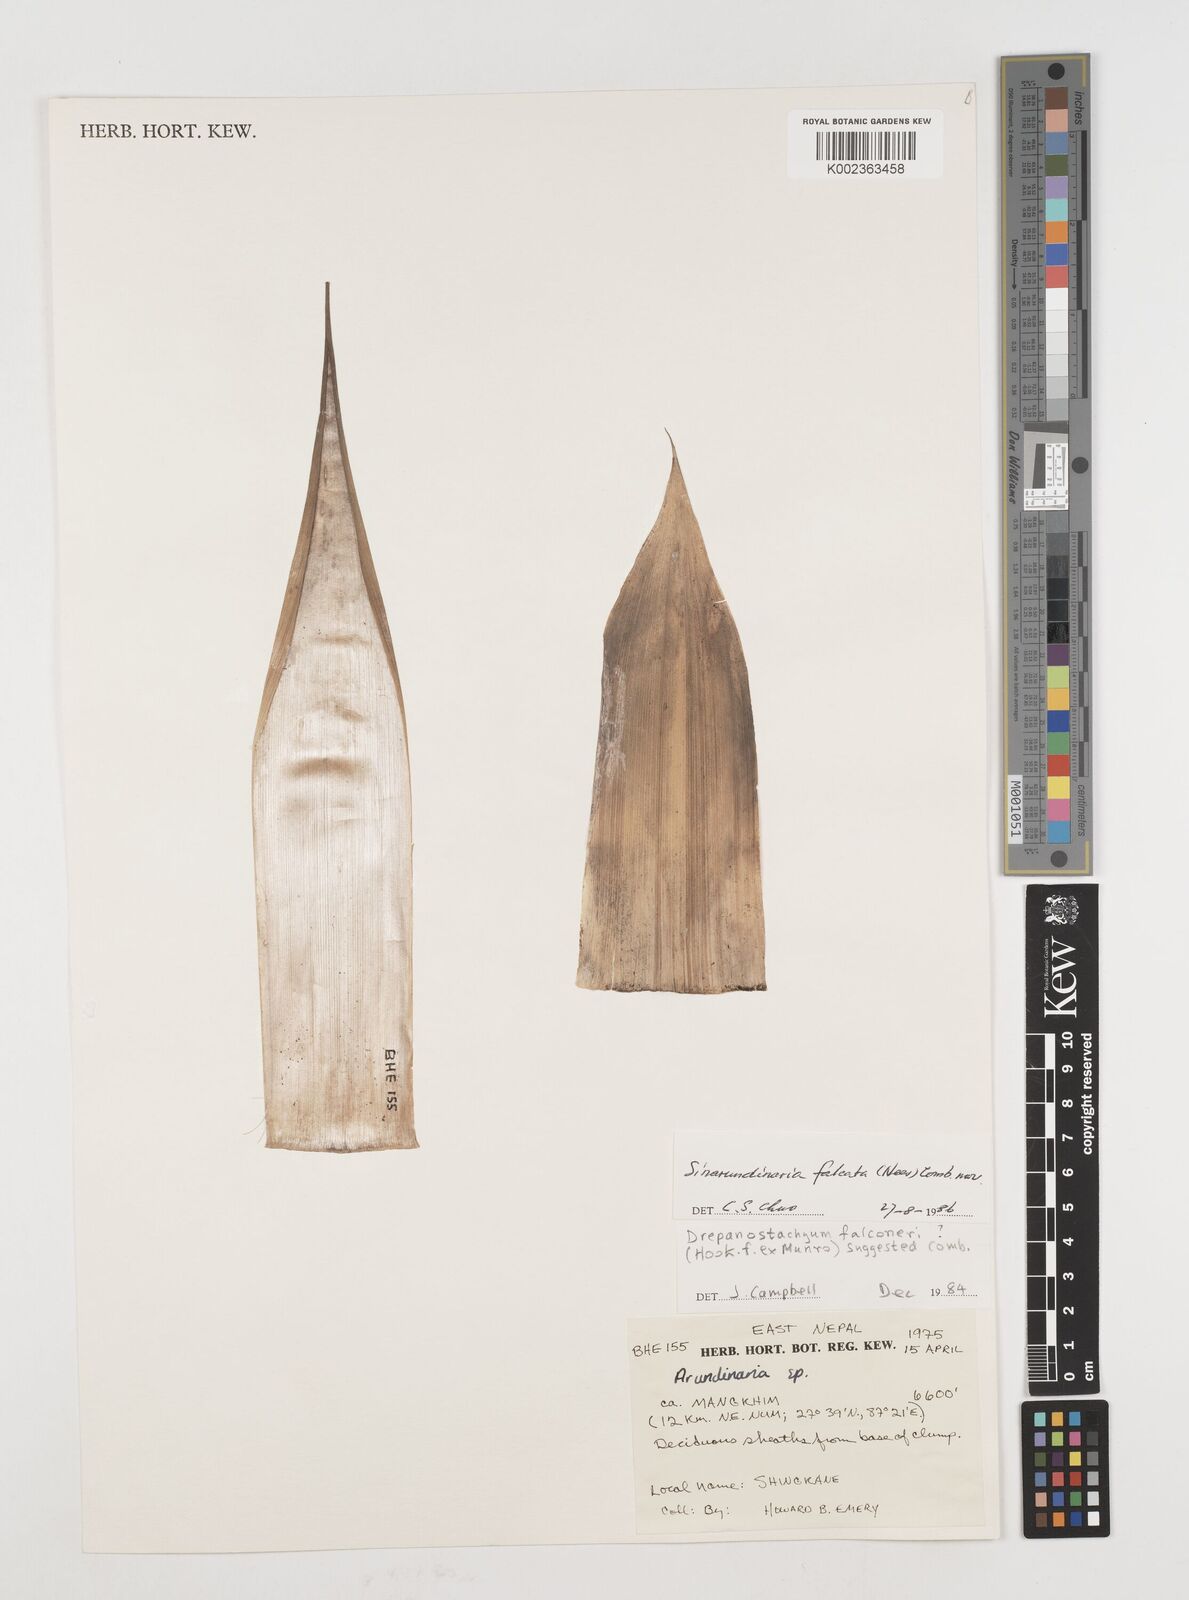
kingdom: Plantae
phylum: Tracheophyta
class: Liliopsida
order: Poales
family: Poaceae
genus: Himalayacalamus
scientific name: Himalayacalamus brevinodus
